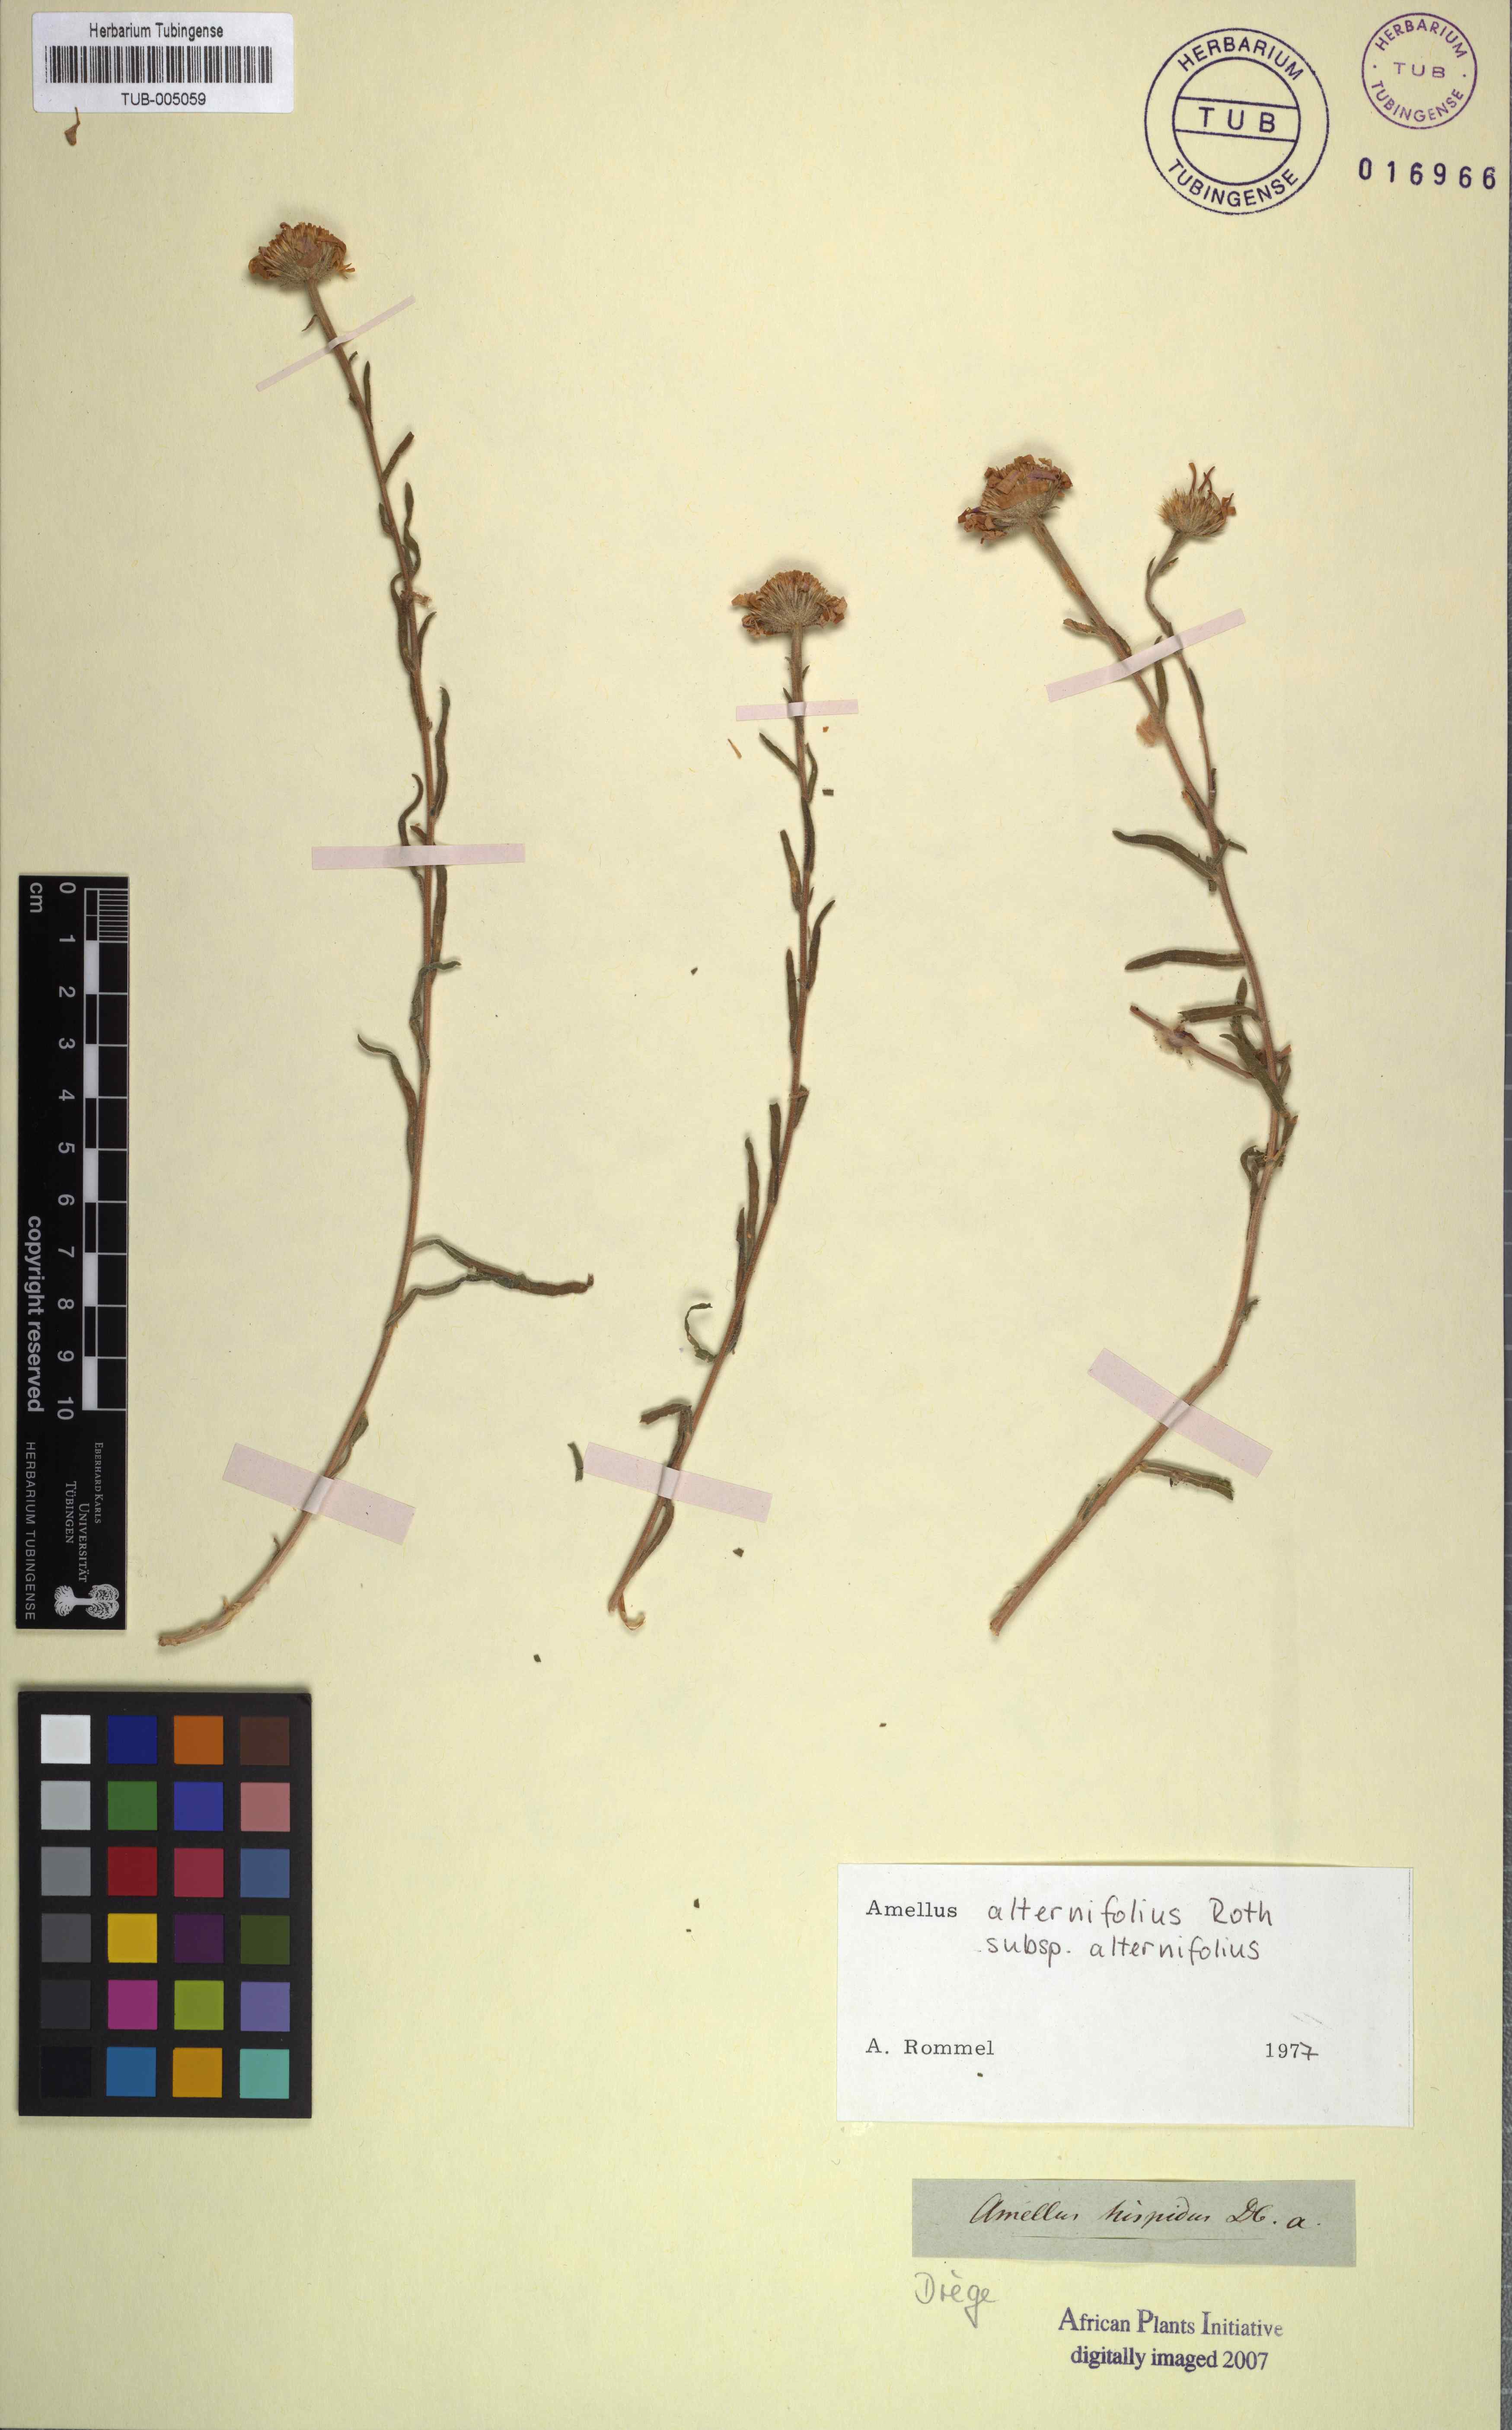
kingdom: Plantae
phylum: Tracheophyta
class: Magnoliopsida
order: Asterales
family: Asteraceae
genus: Amellus
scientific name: Amellus alternifolius
